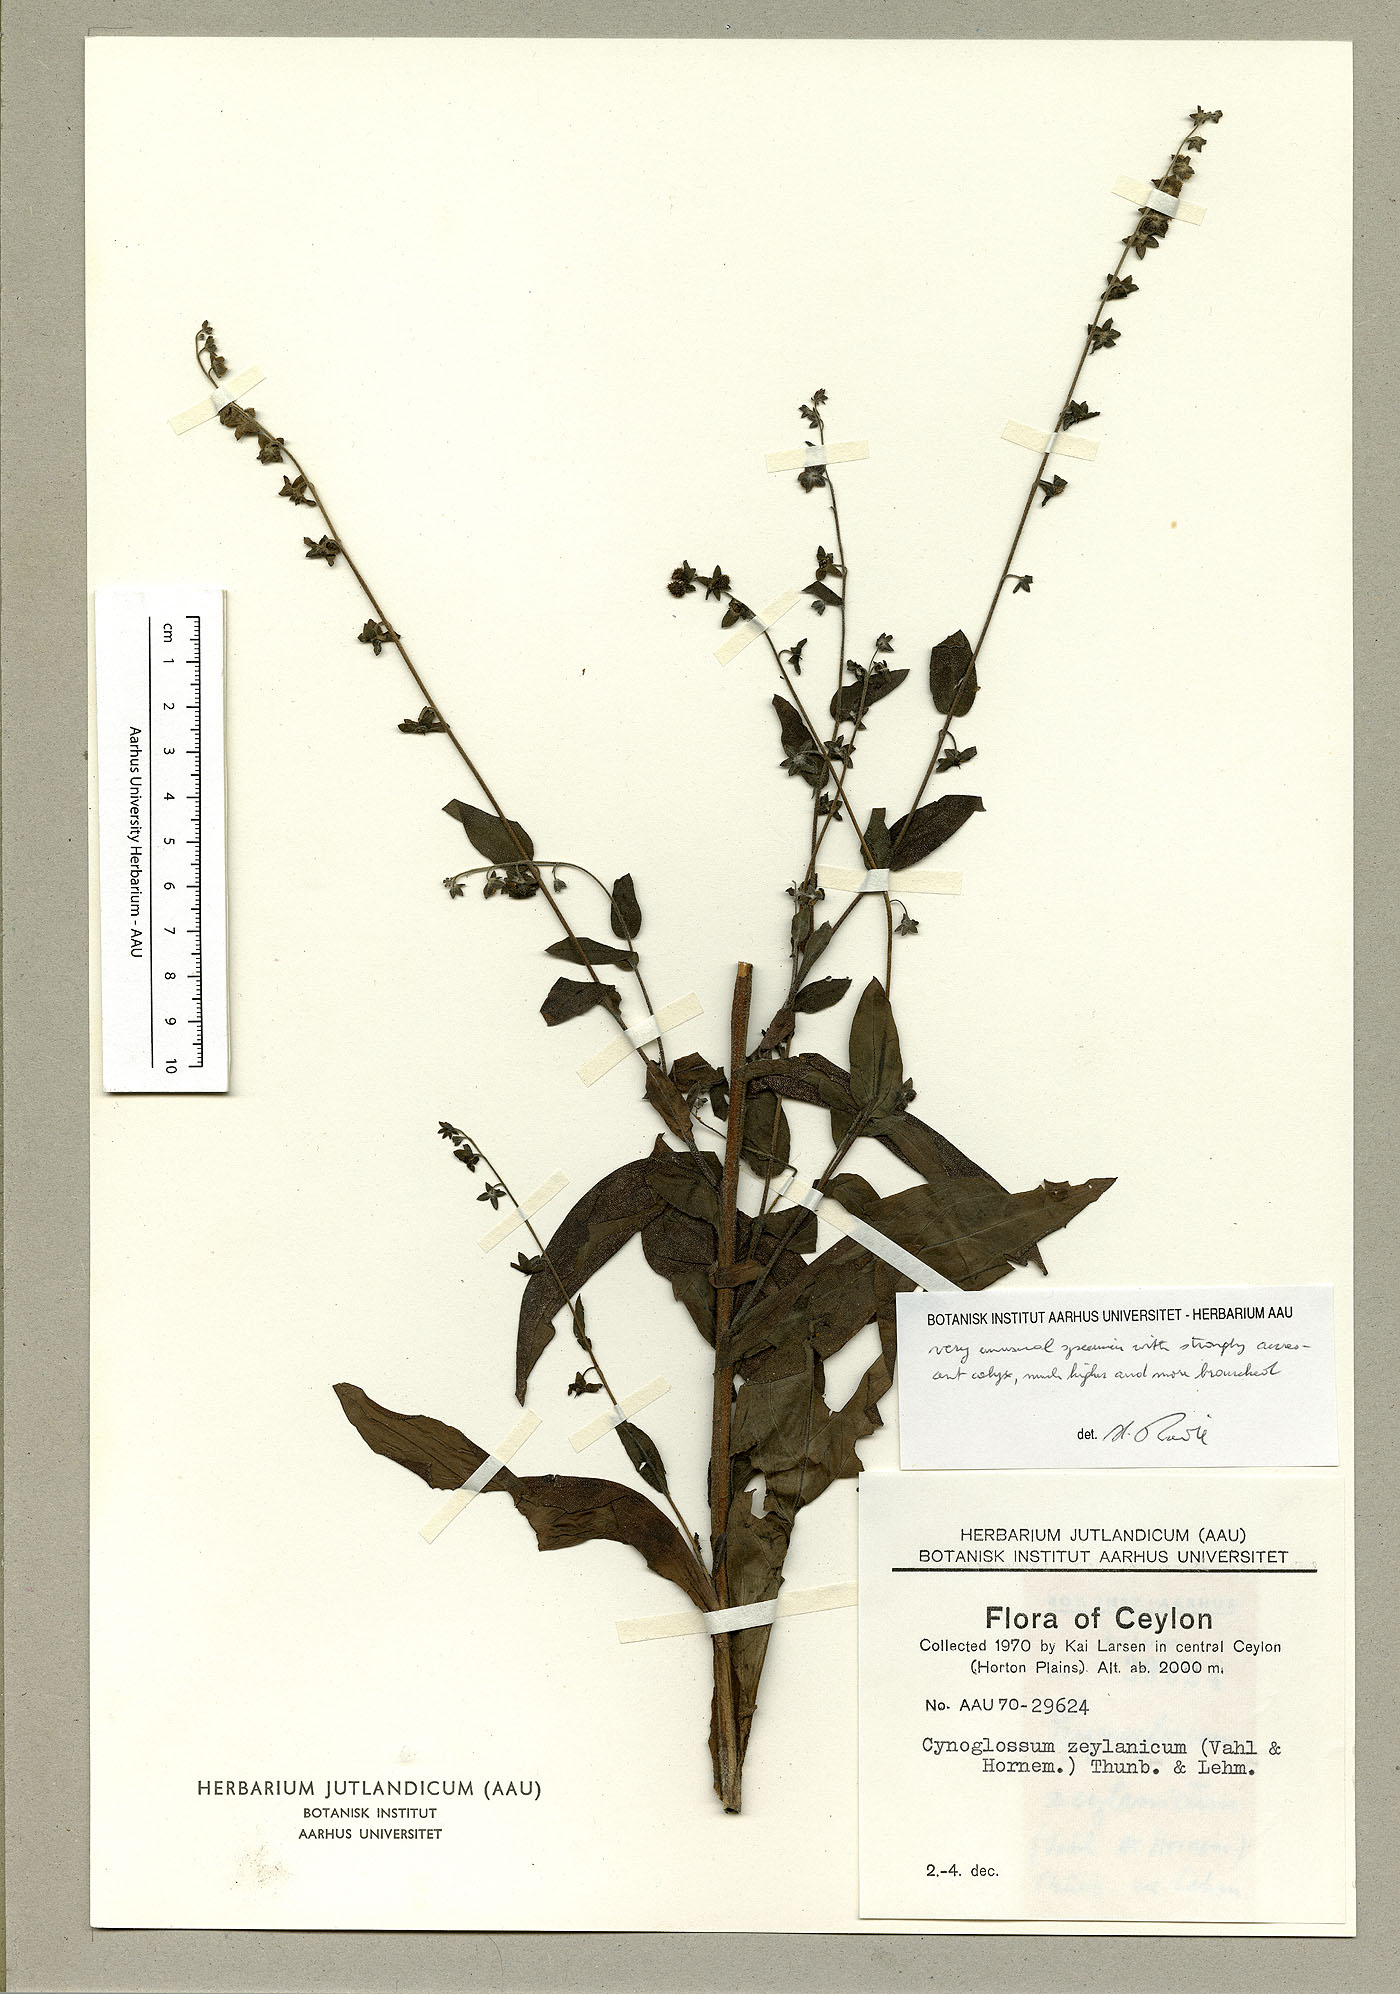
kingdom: Plantae
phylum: Tracheophyta
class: Magnoliopsida
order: Boraginales
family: Boraginaceae
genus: Rochelia
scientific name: Rochelia zeylanica
